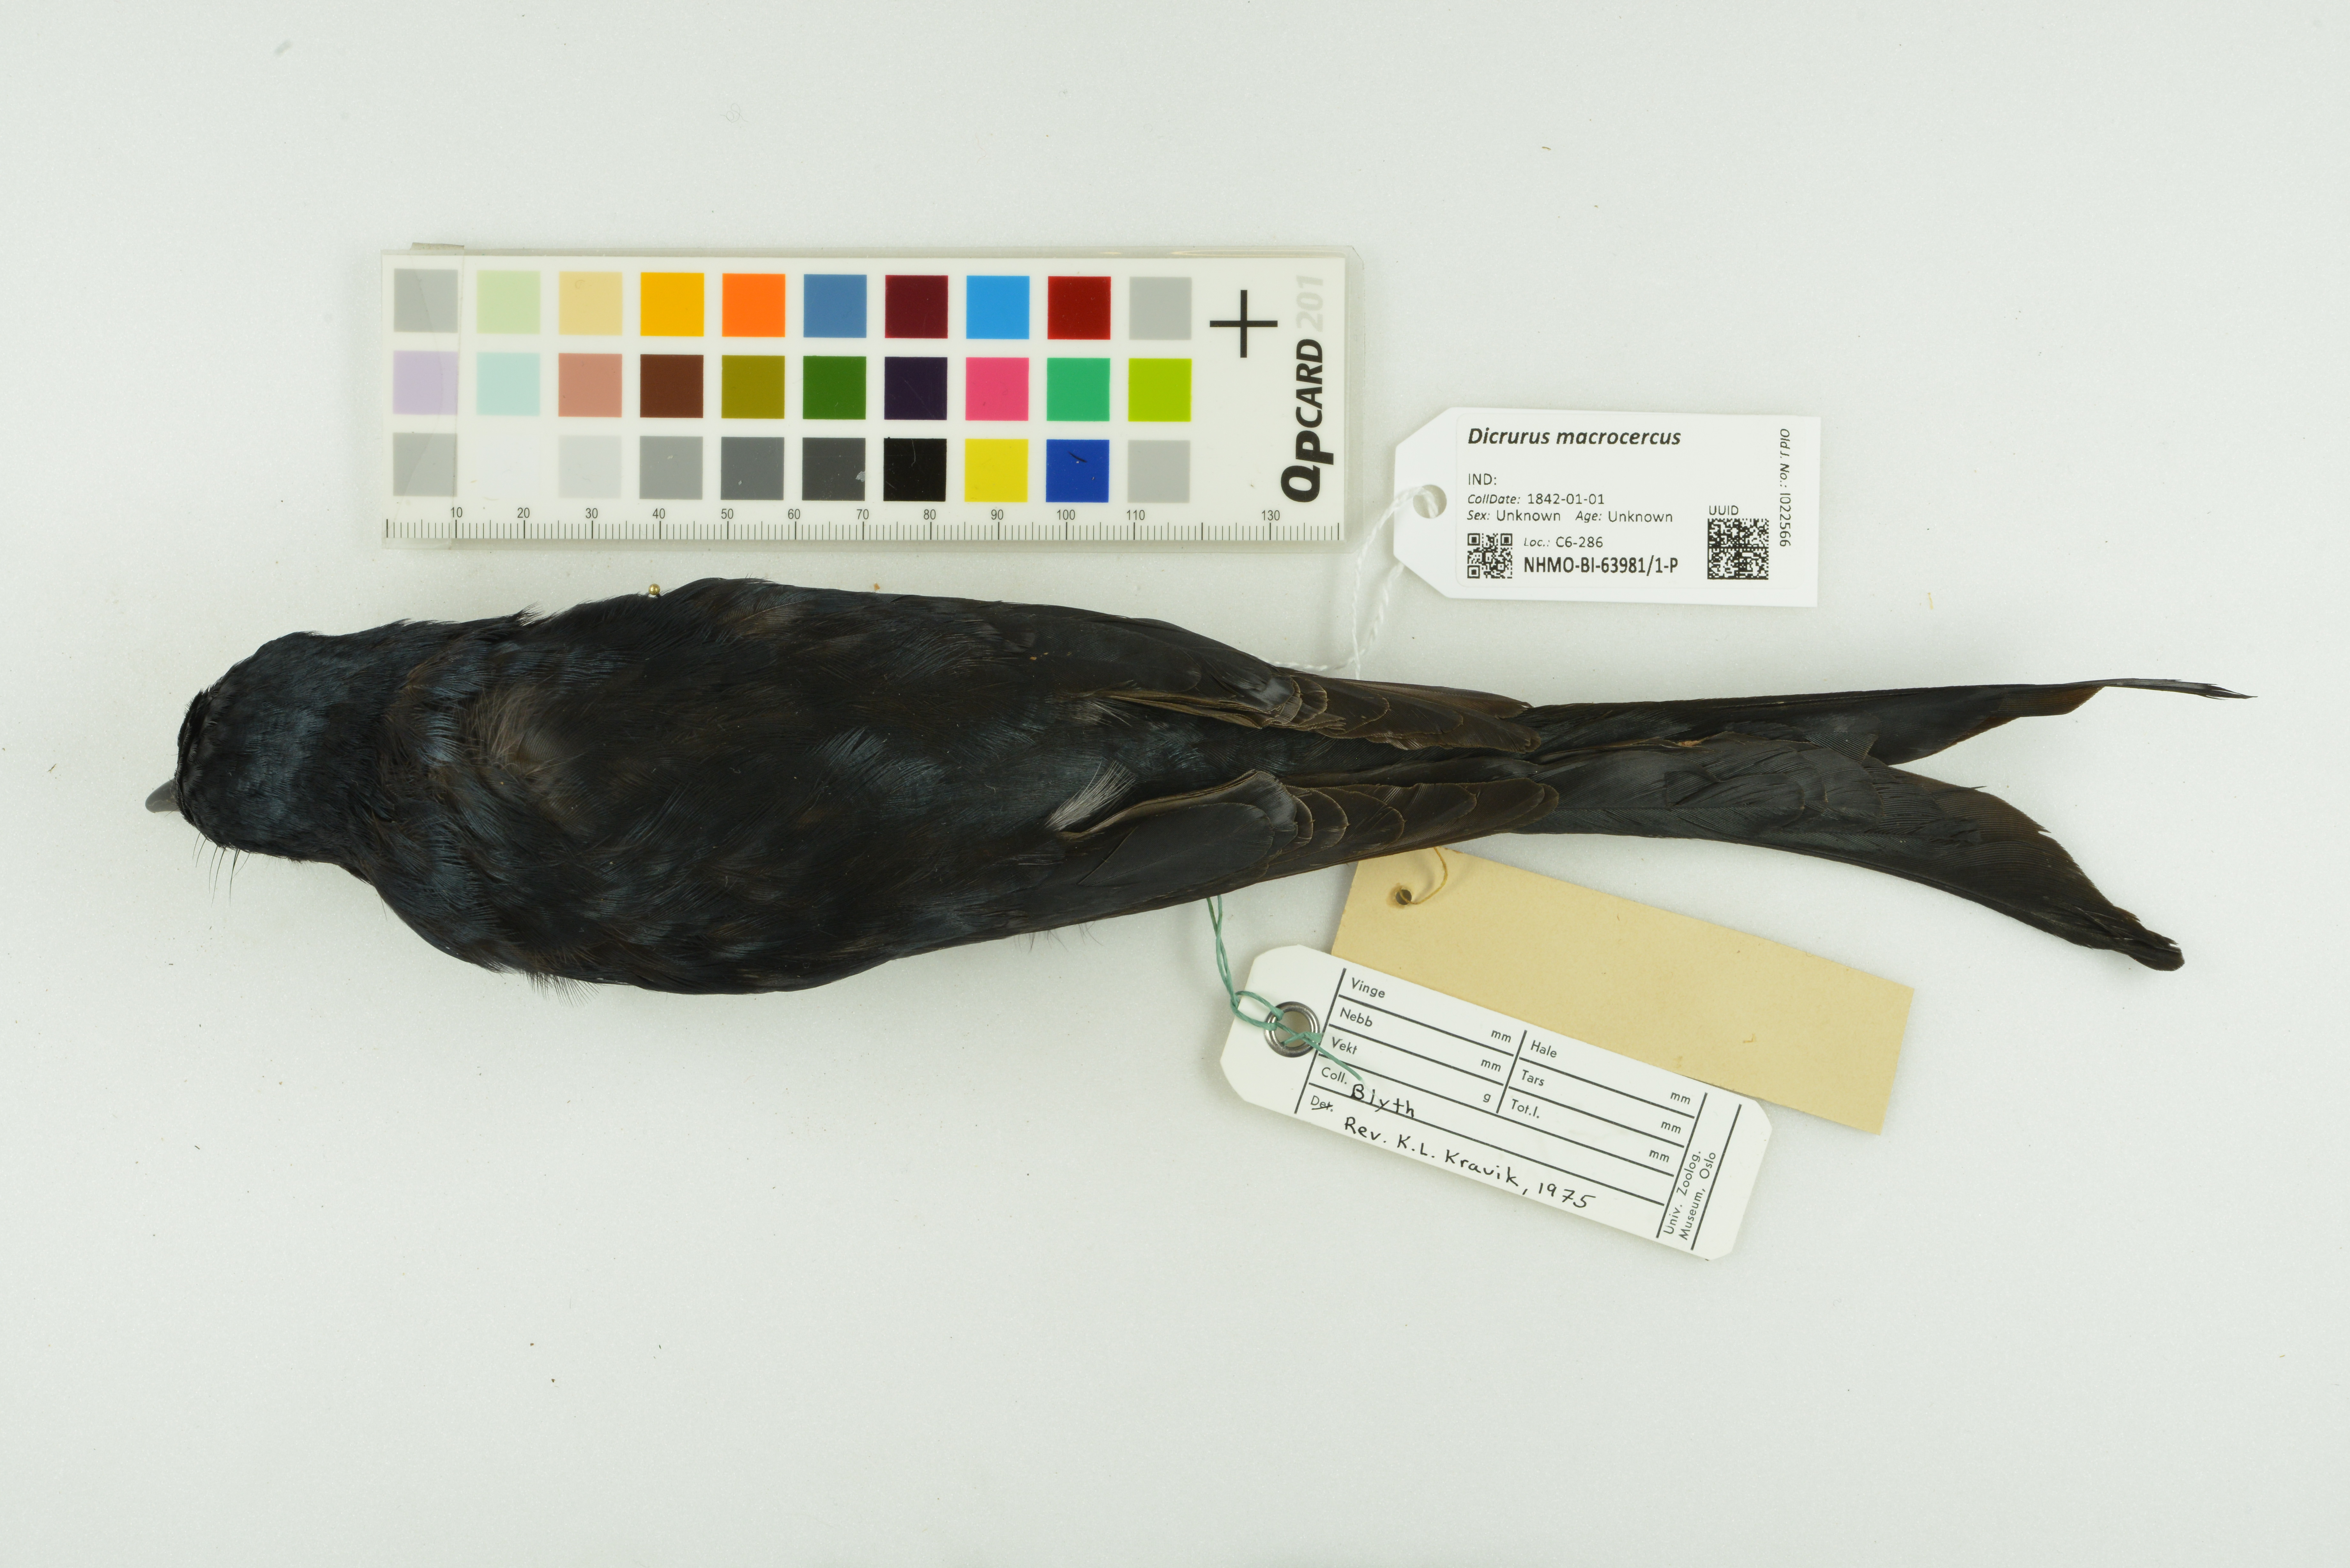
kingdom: Animalia
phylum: Chordata
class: Aves
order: Passeriformes
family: Dicruridae
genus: Dicrurus
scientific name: Dicrurus macrocercus
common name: Black drongo
